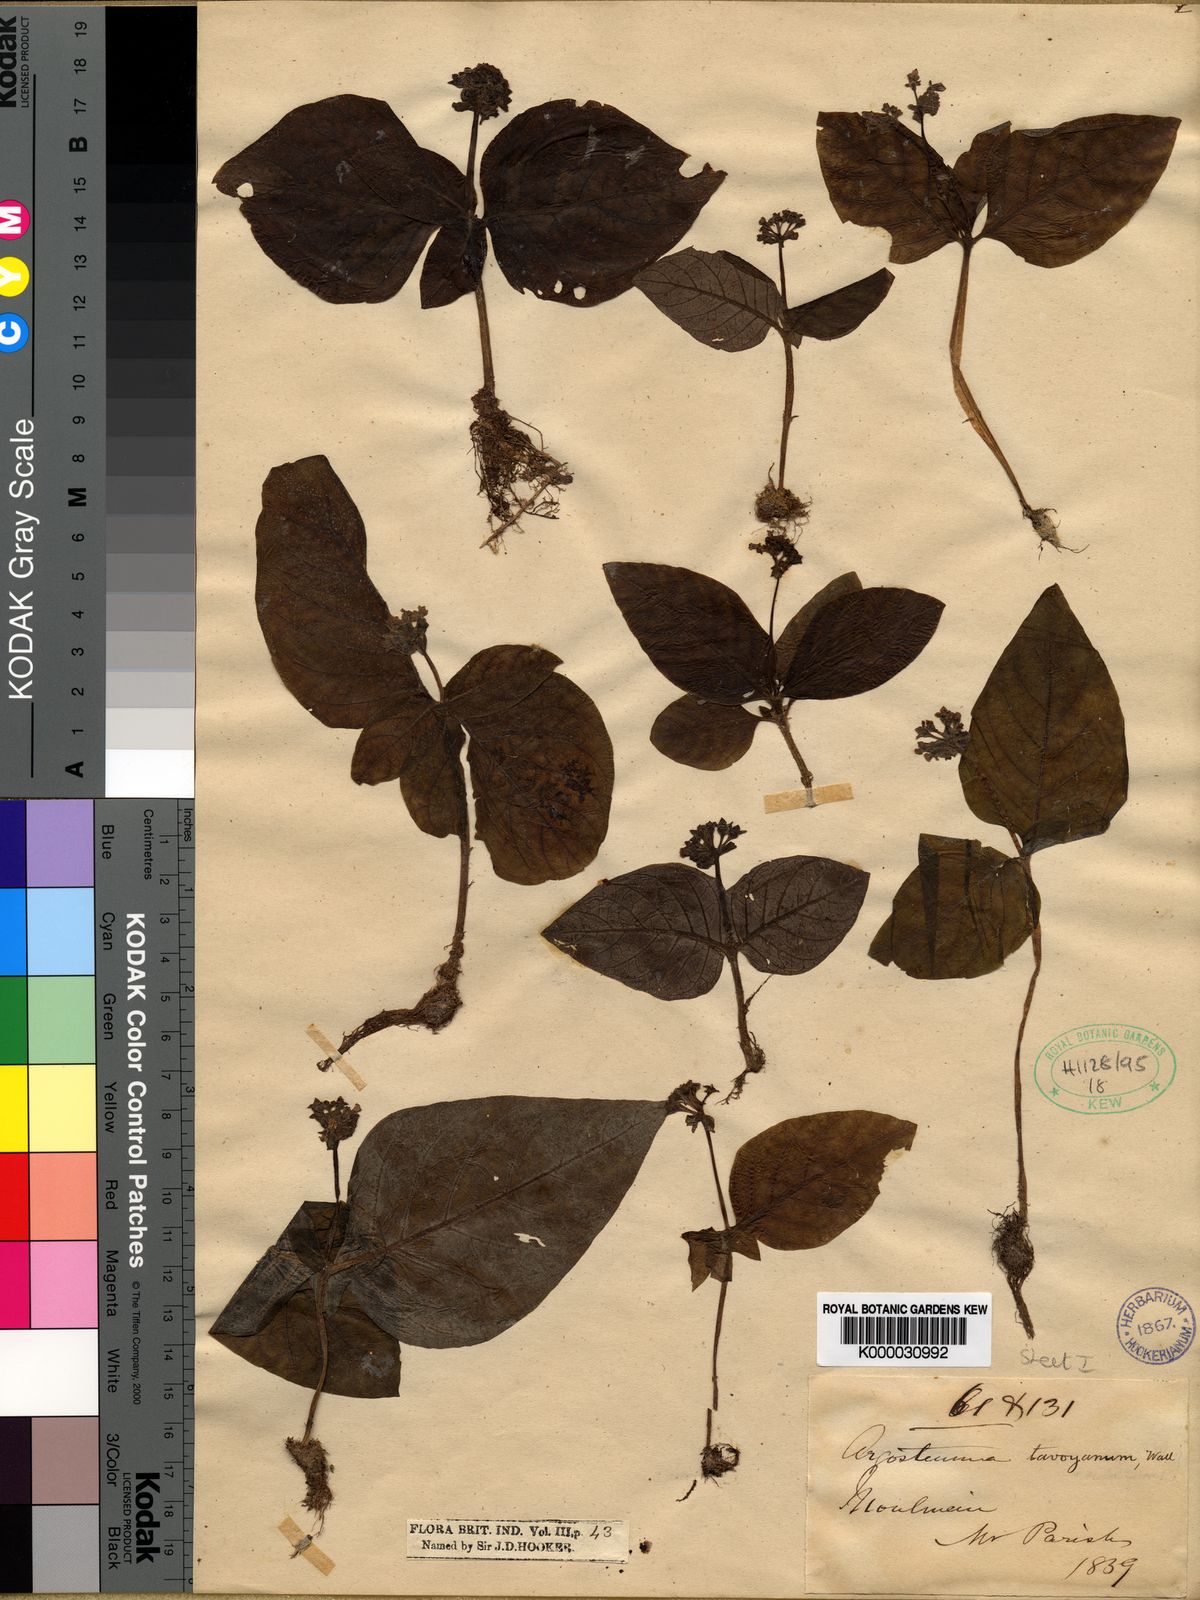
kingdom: Plantae
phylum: Tracheophyta
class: Magnoliopsida
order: Gentianales
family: Rubiaceae
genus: Argostemma
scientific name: Argostemma
